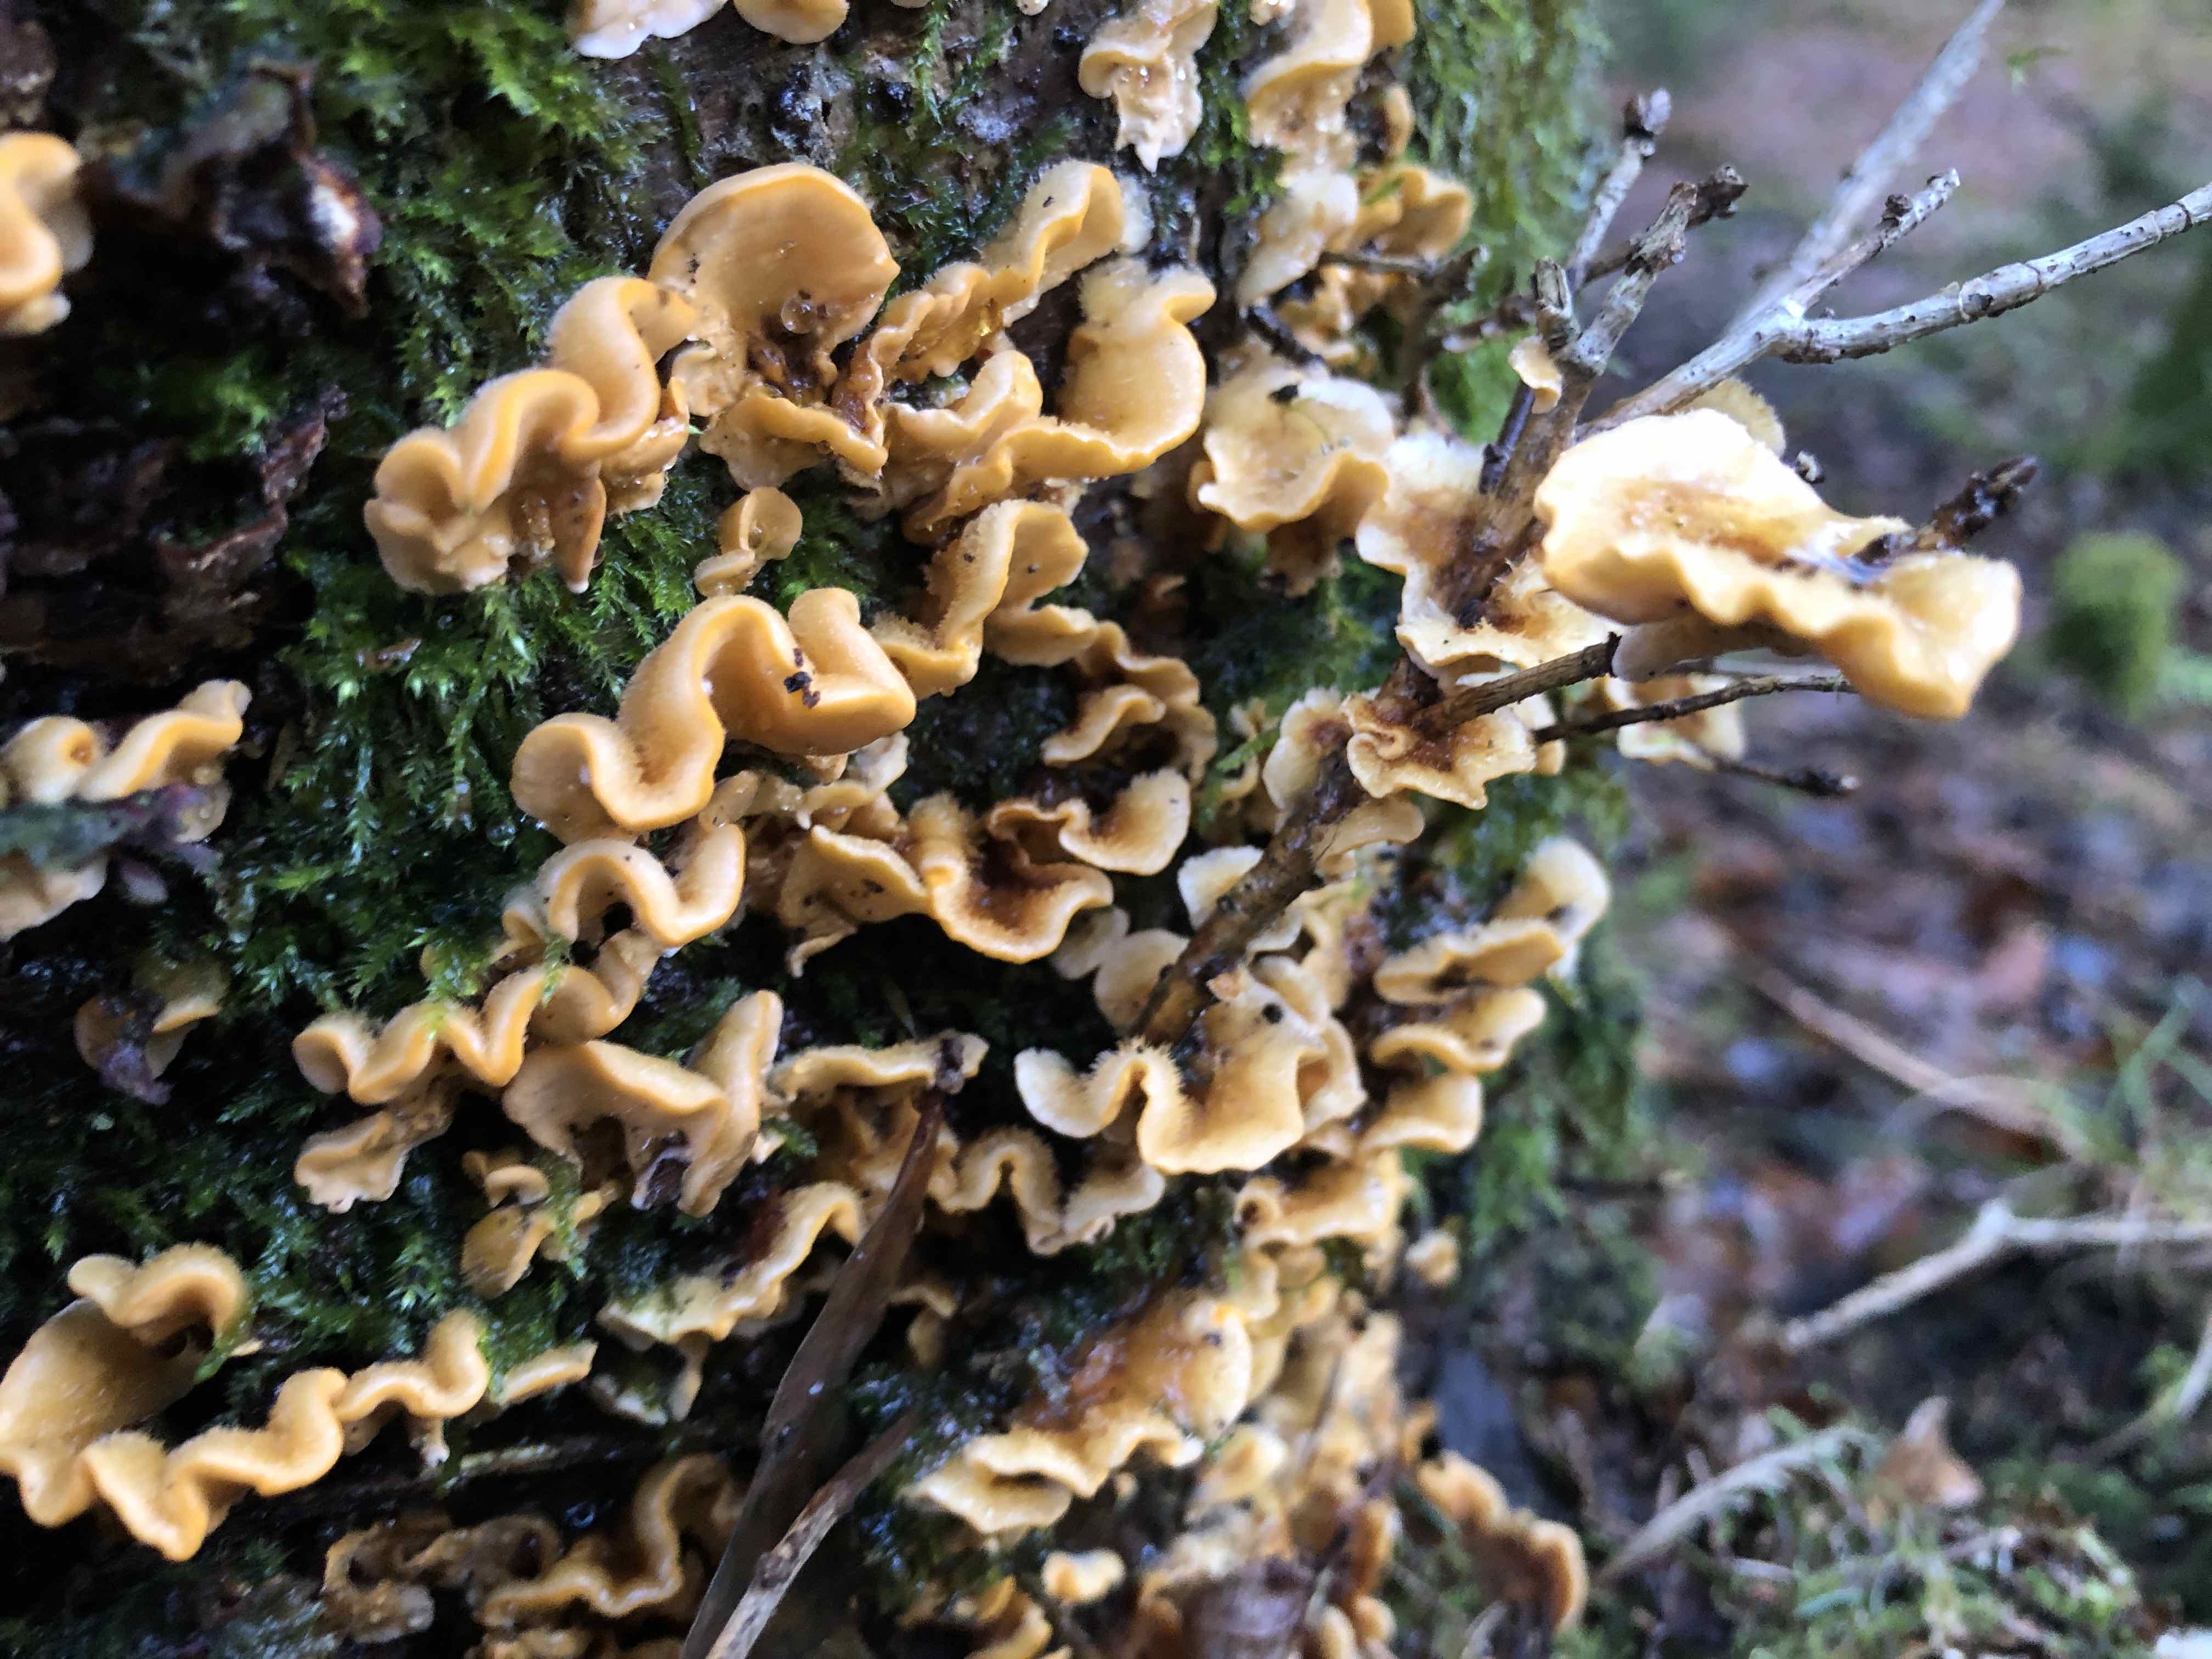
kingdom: Fungi
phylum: Basidiomycota
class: Agaricomycetes
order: Russulales
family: Stereaceae
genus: Stereum
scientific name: Stereum hirsutum
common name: håret lædersvamp
